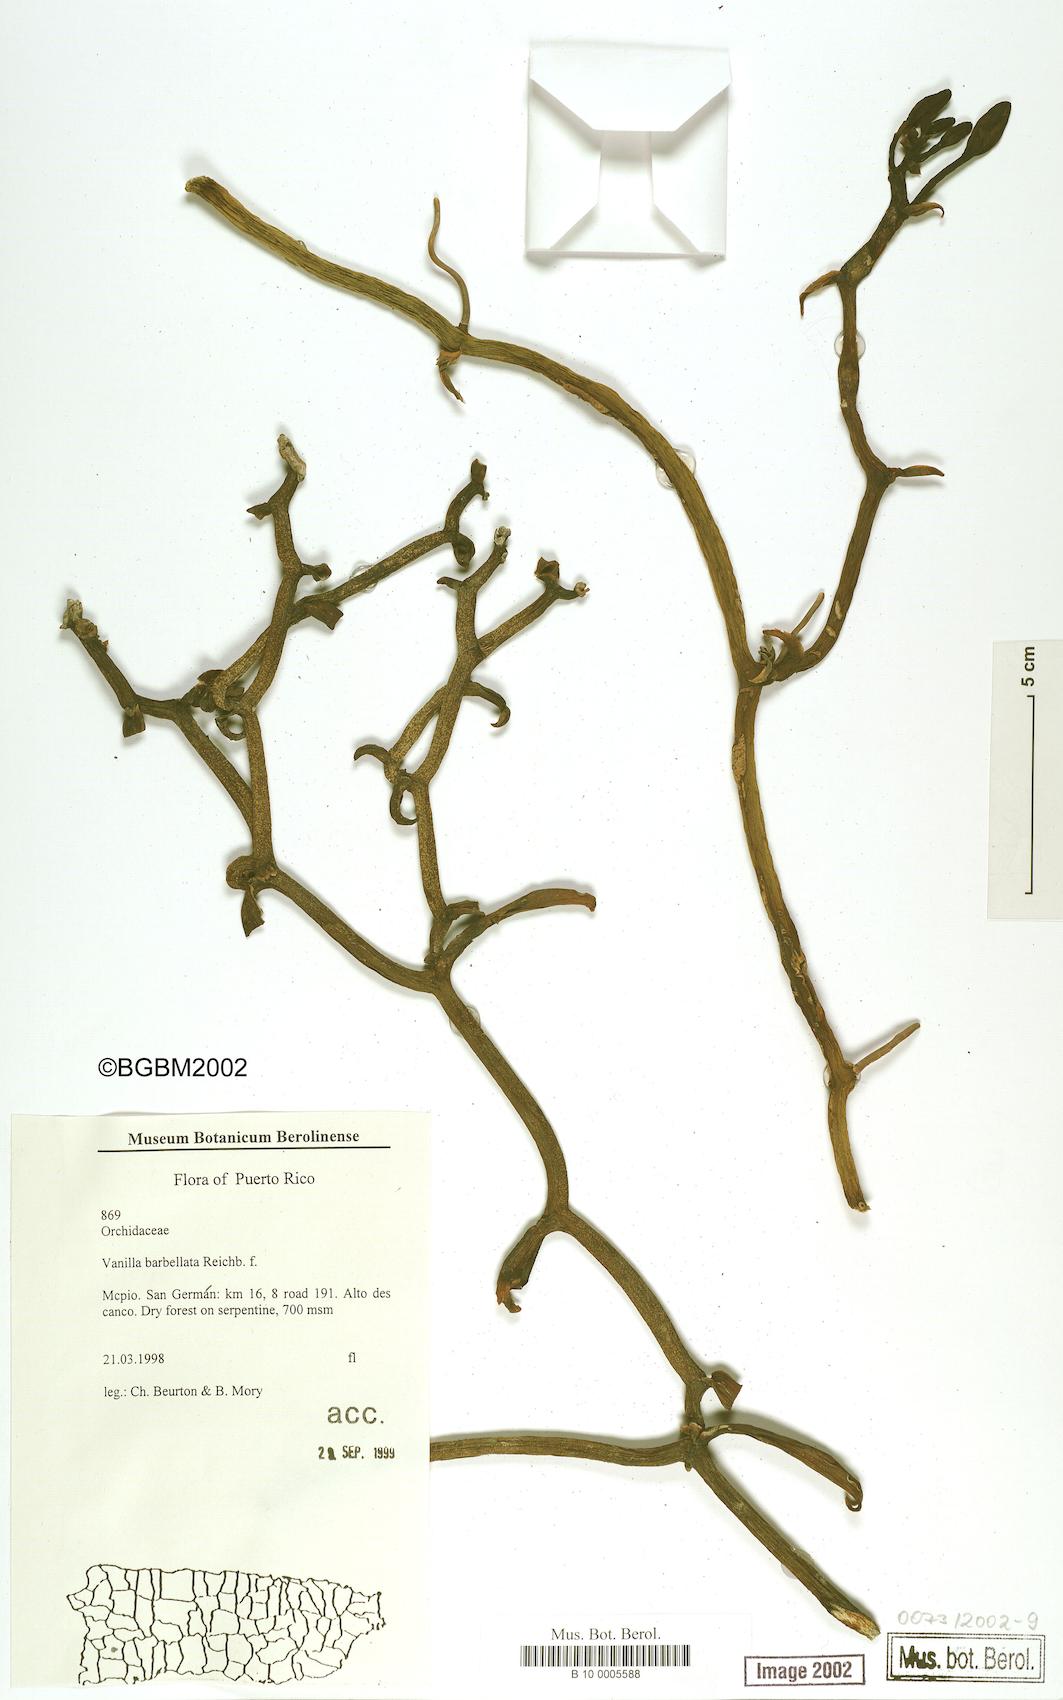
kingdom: Plantae
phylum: Tracheophyta
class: Liliopsida
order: Asparagales
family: Orchidaceae
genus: Vanilla
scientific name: Vanilla barbellata
